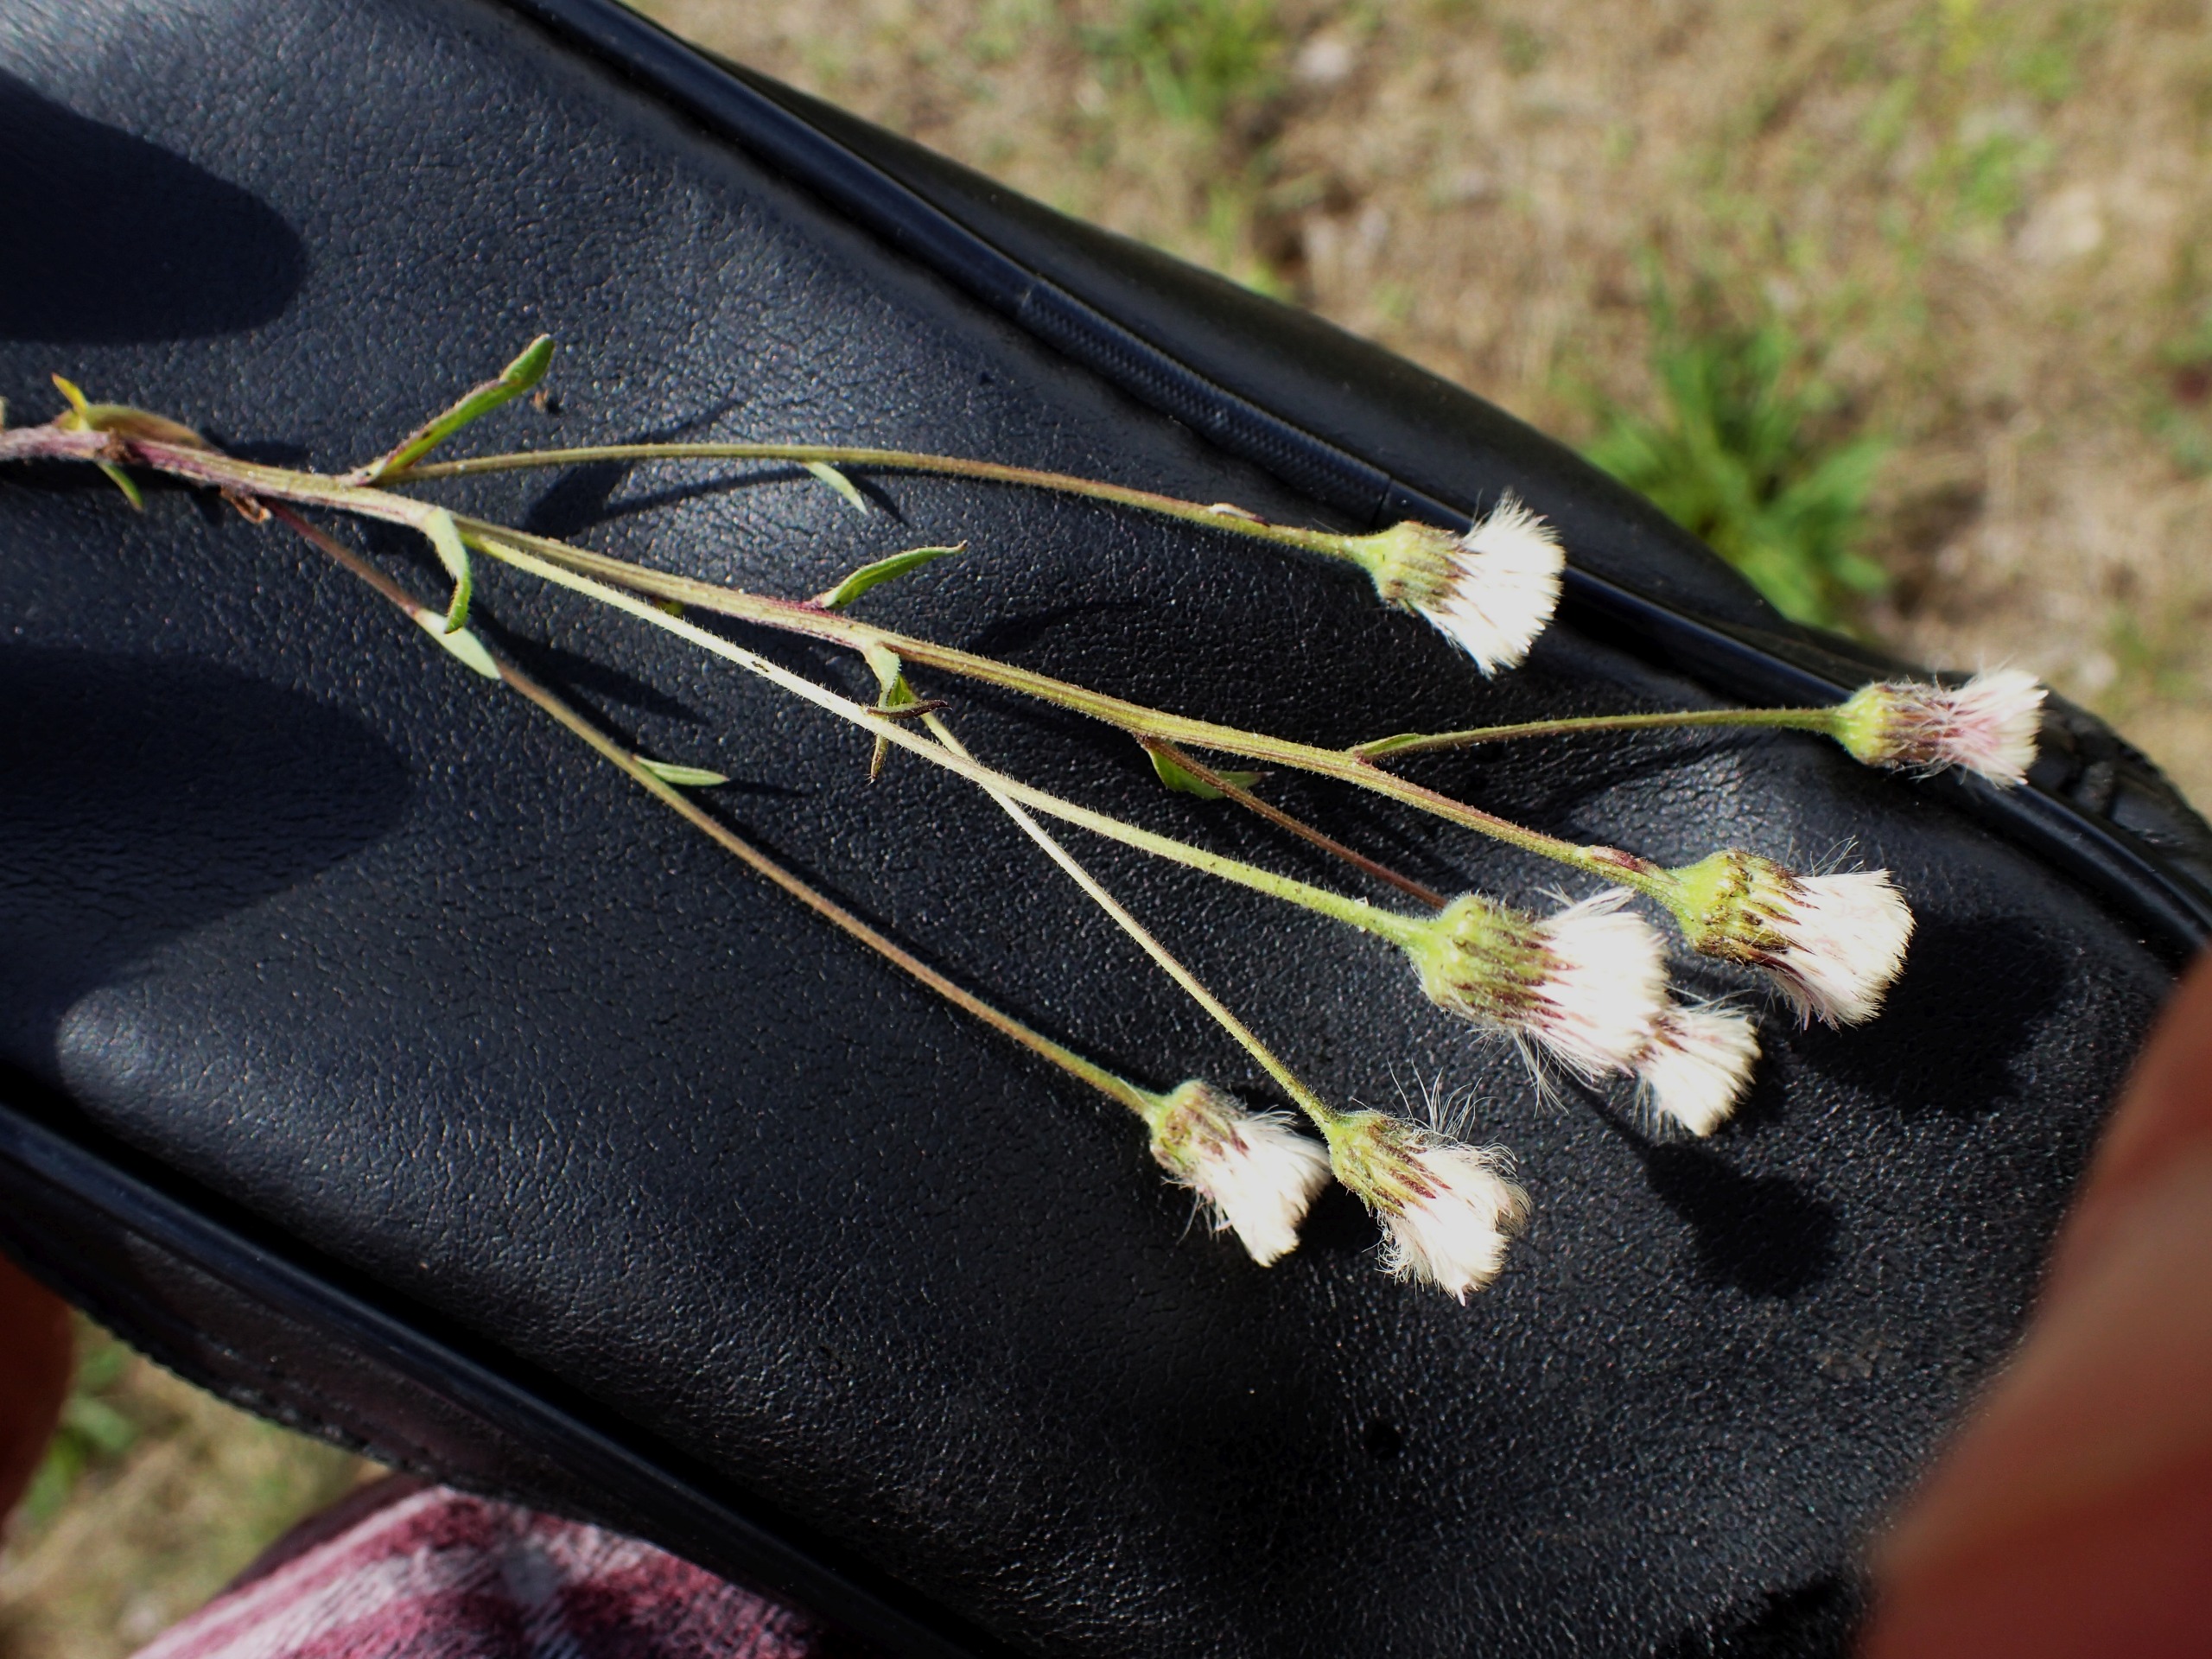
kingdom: Plantae
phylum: Tracheophyta
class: Magnoliopsida
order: Asterales
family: Asteraceae
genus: Erigeron
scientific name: Erigeron muralis
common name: Vreden bakkestjerne
